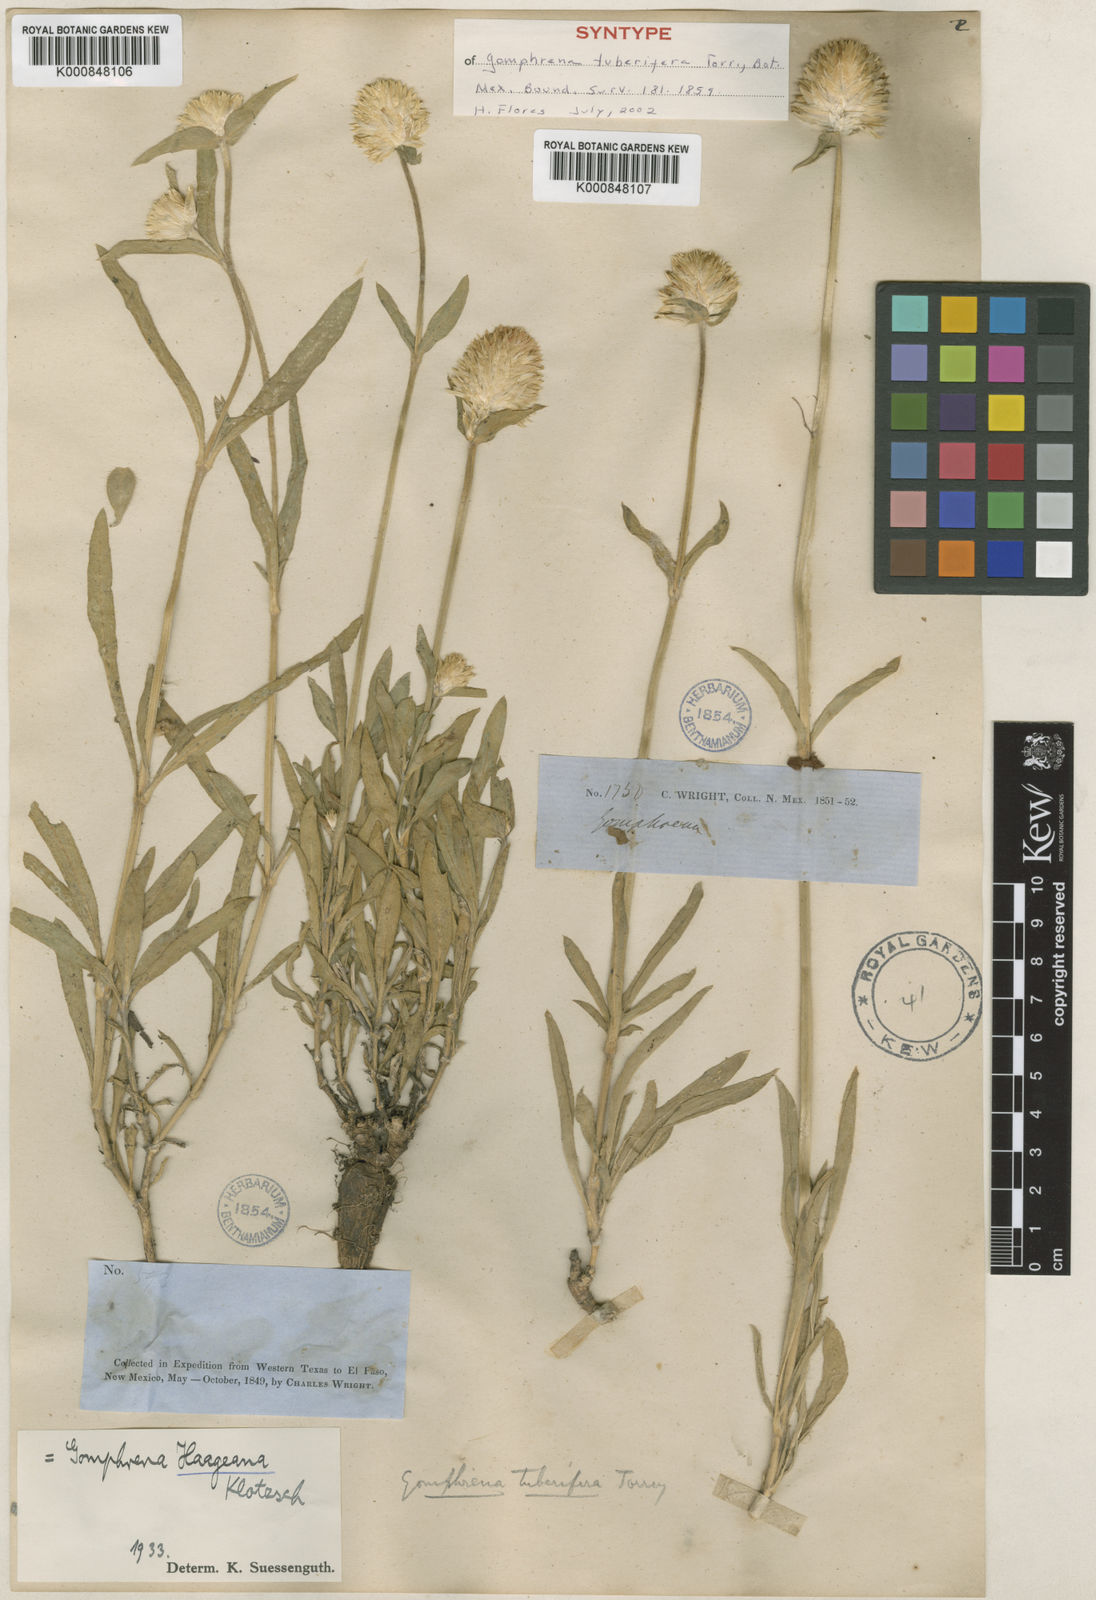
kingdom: Plantae
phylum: Tracheophyta
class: Magnoliopsida
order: Caryophyllales
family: Amaranthaceae
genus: Gomphrena
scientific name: Gomphrena haageana
